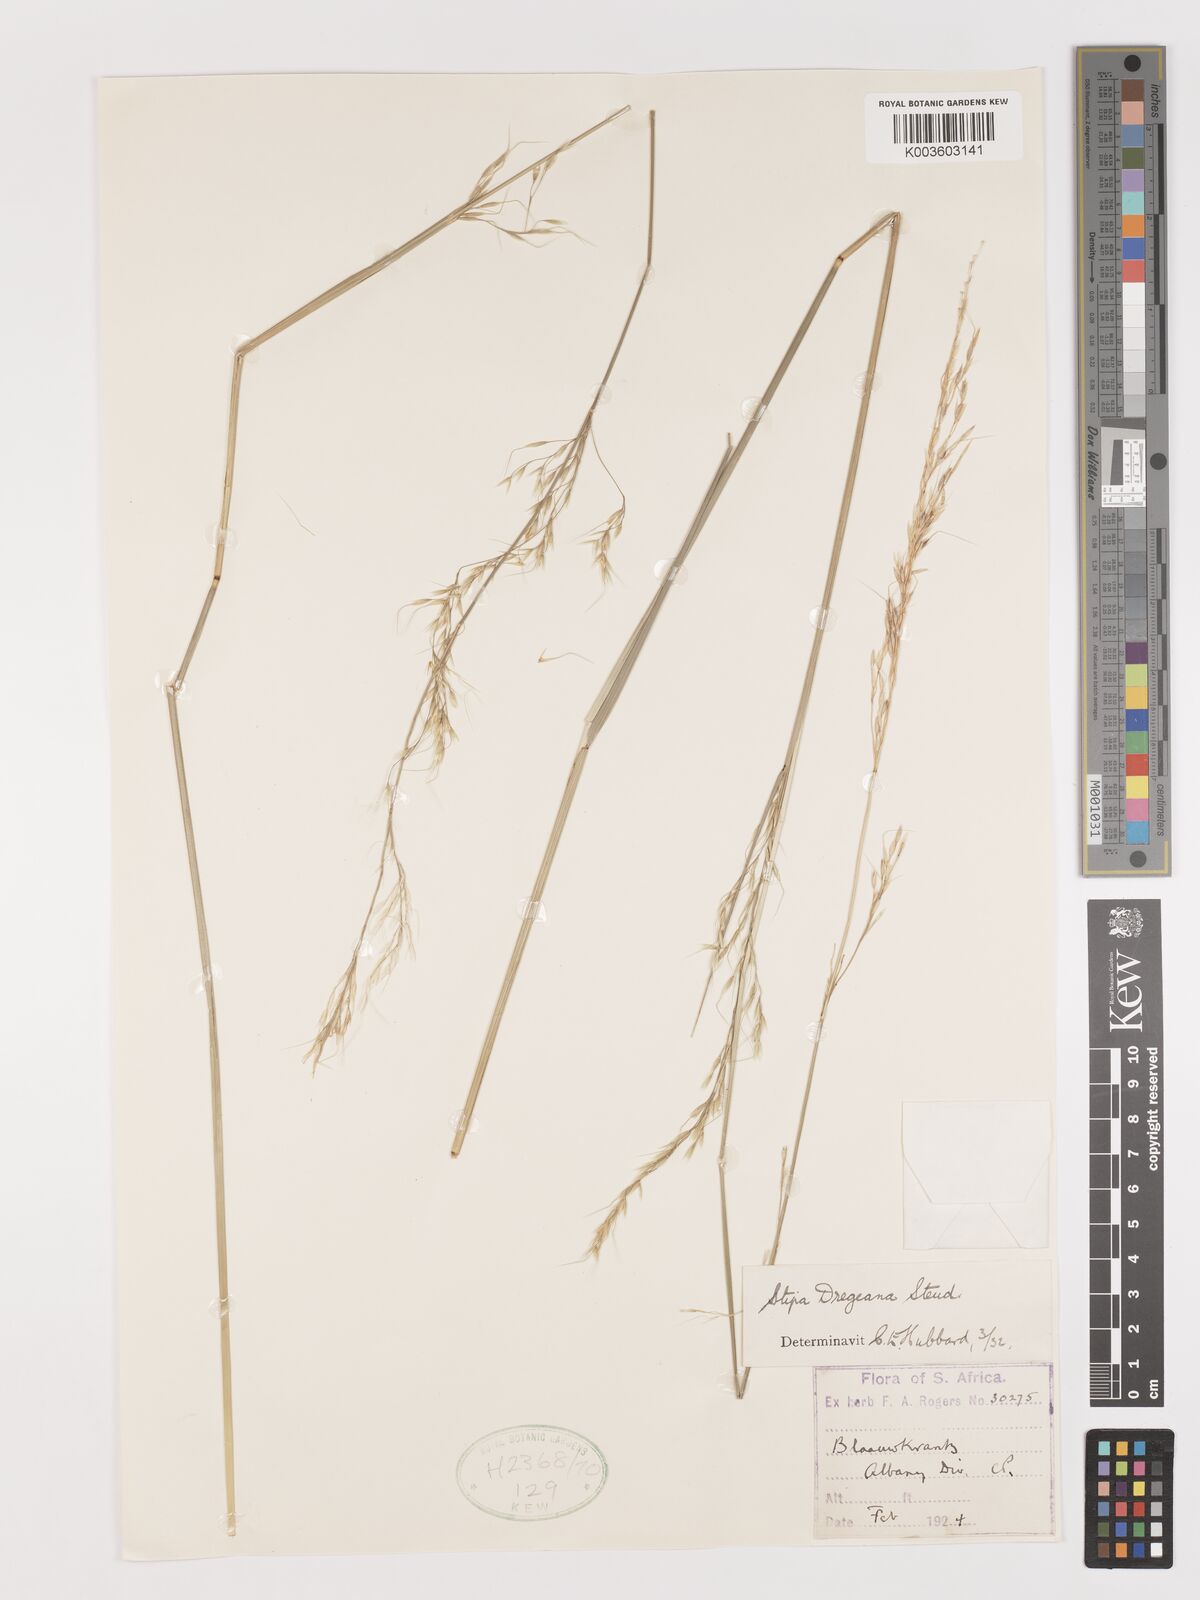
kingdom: Plantae
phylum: Tracheophyta
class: Liliopsida
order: Poales
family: Poaceae
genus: Stipa
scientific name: Stipa dregeana
